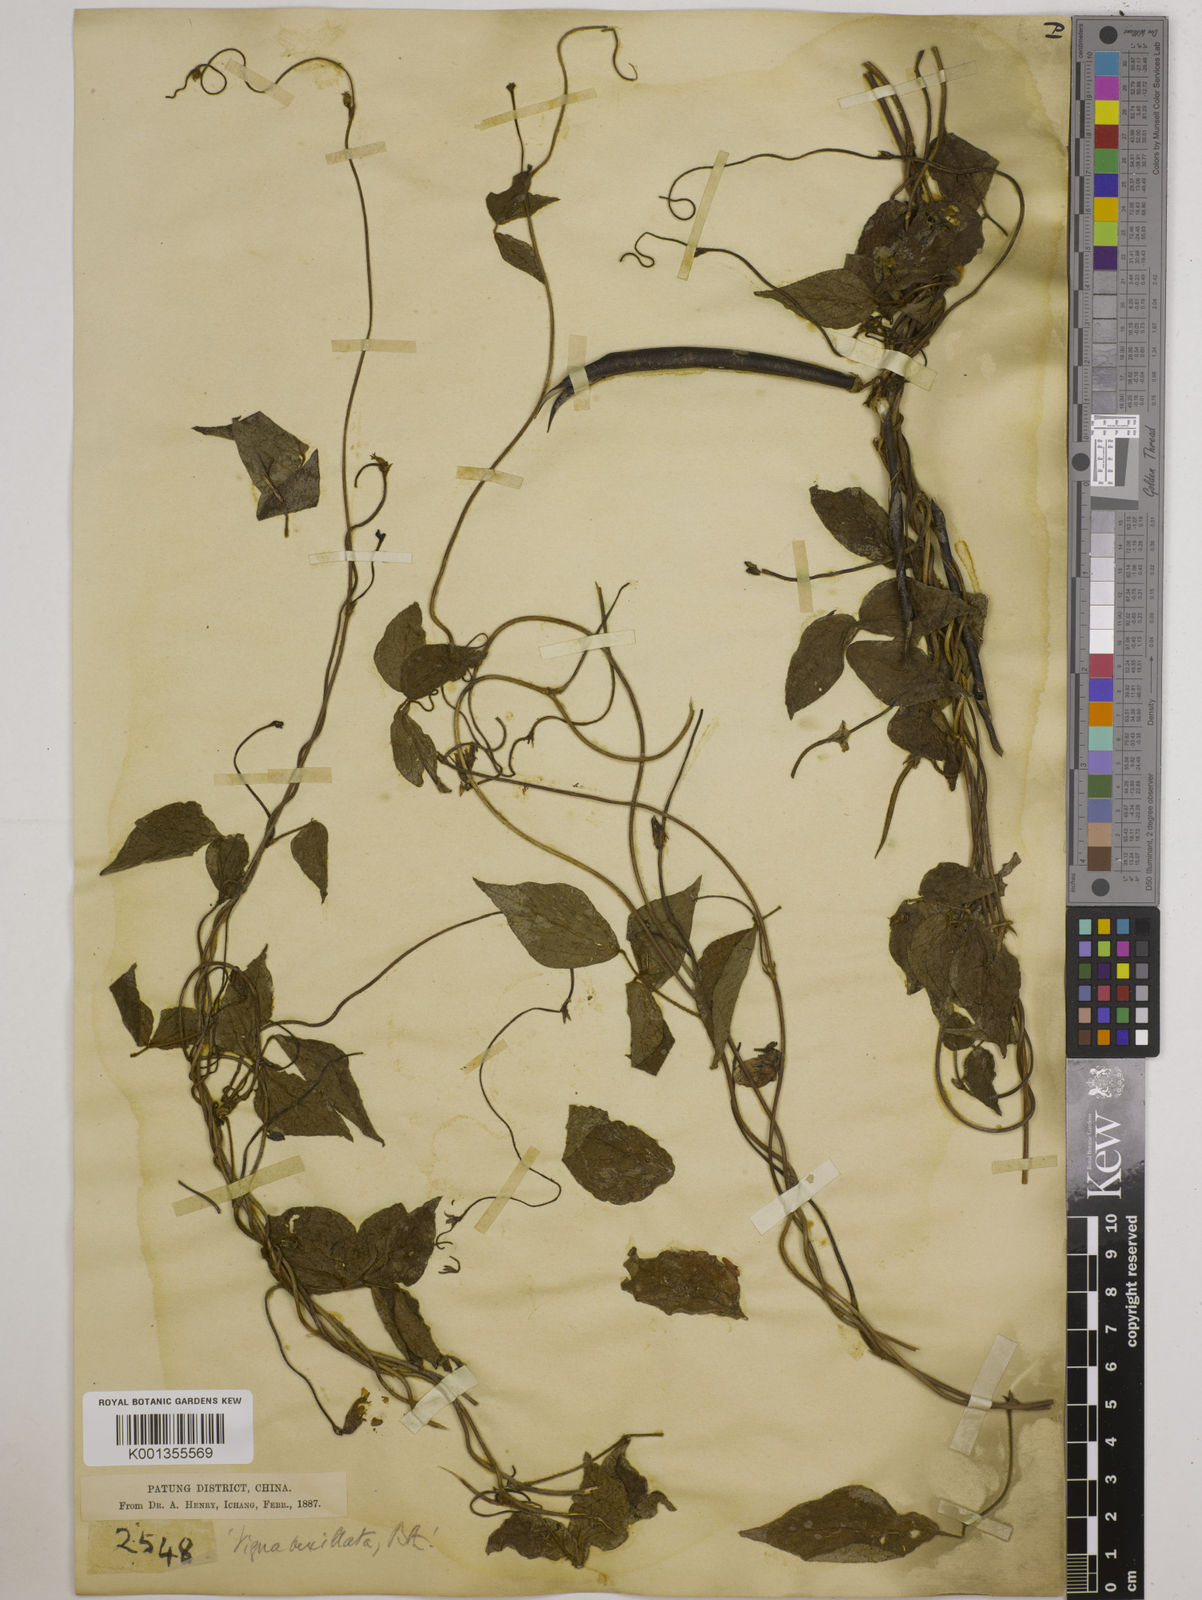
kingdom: Plantae
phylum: Tracheophyta
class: Magnoliopsida
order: Fabales
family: Fabaceae
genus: Vigna
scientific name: Vigna vexillata
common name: Zombi pea
